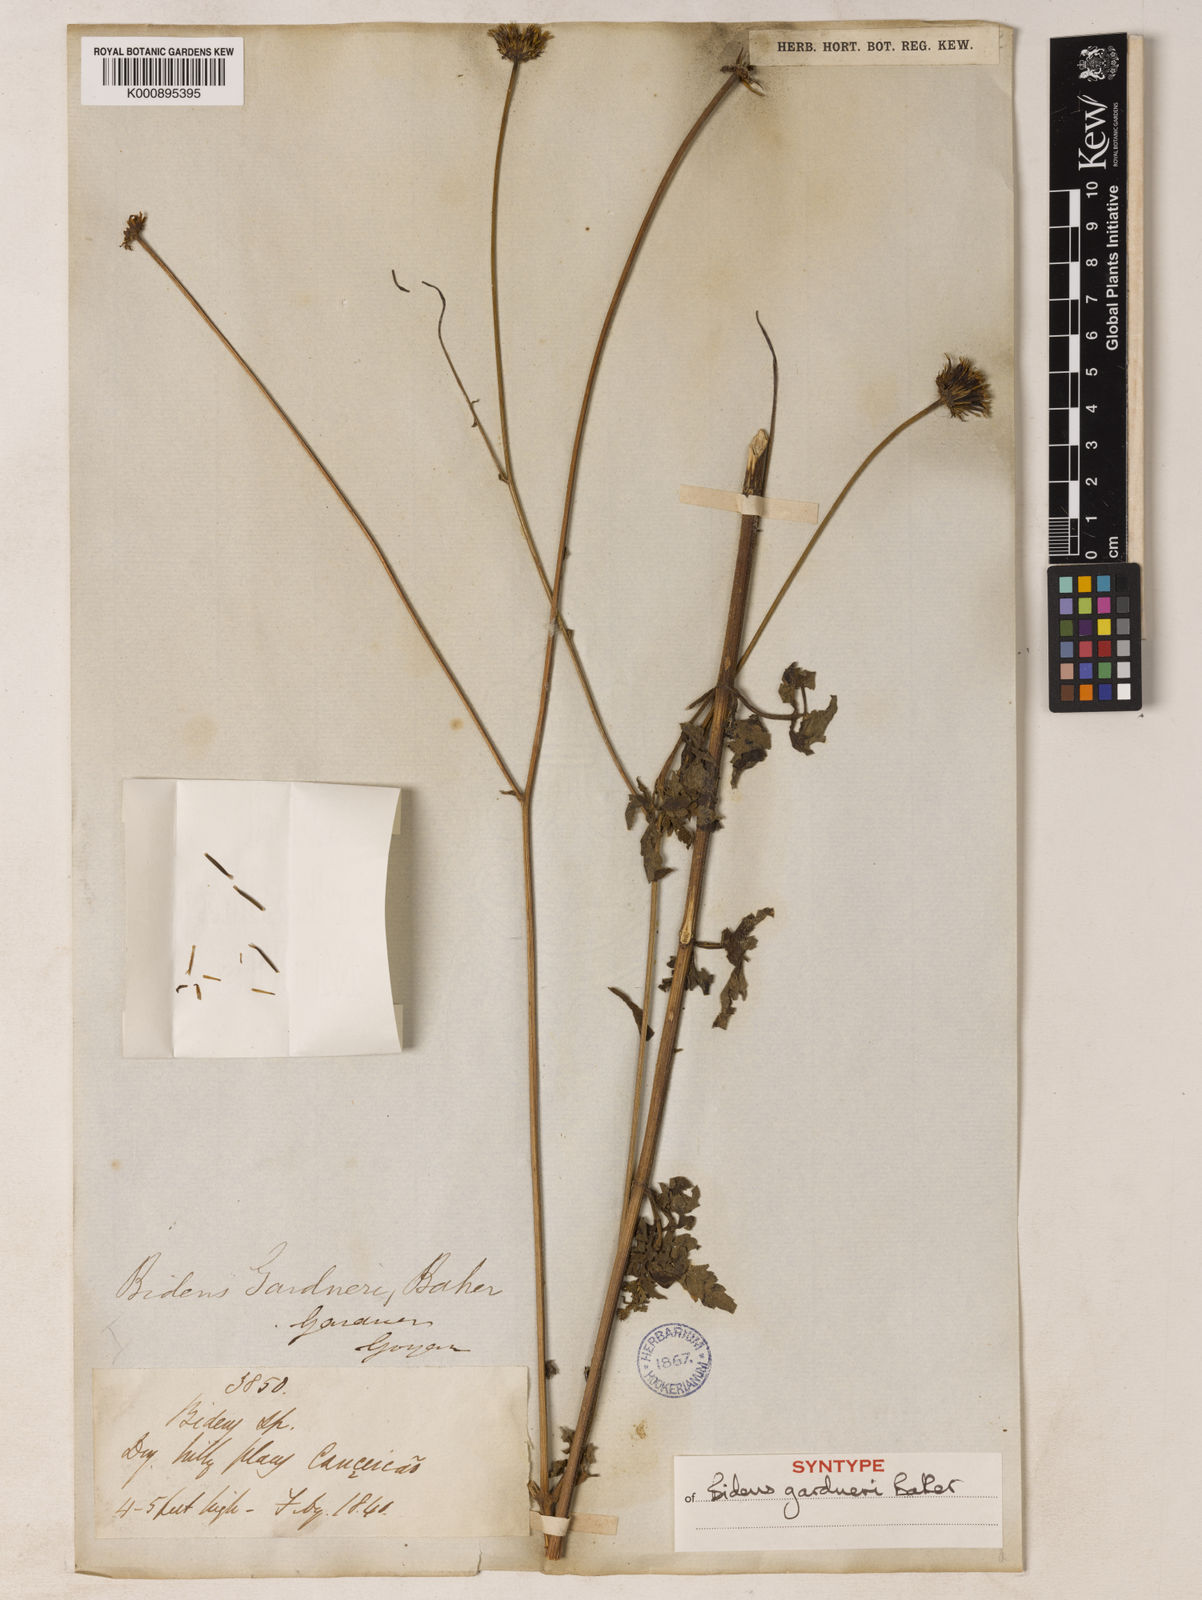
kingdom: Plantae
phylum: Tracheophyta
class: Magnoliopsida
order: Asterales
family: Asteraceae
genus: Bidens
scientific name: Bidens gardneri
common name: Ridge beggartick
